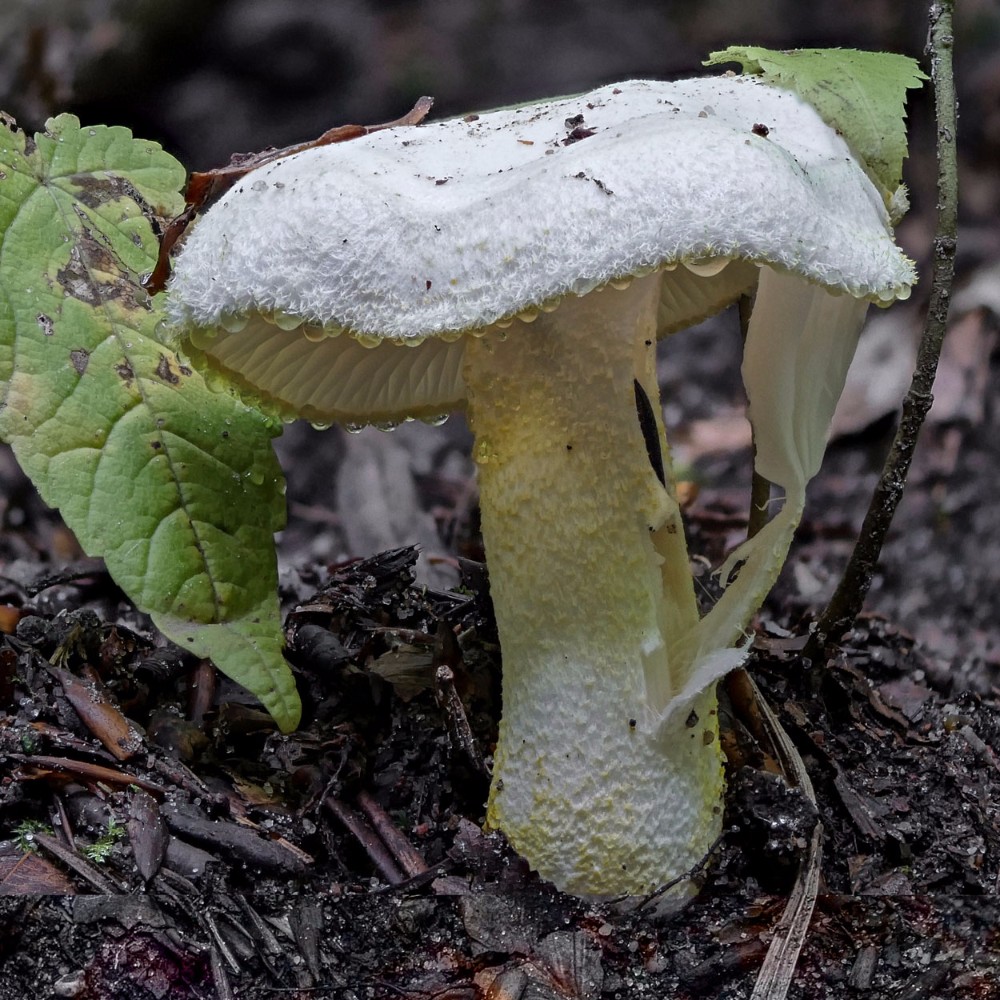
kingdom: Fungi
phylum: Basidiomycota
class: Agaricomycetes
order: Agaricales
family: Hygrophoraceae
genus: Hygrophorus
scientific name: Hygrophorus chrysodon
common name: gulfnugget sneglehat
